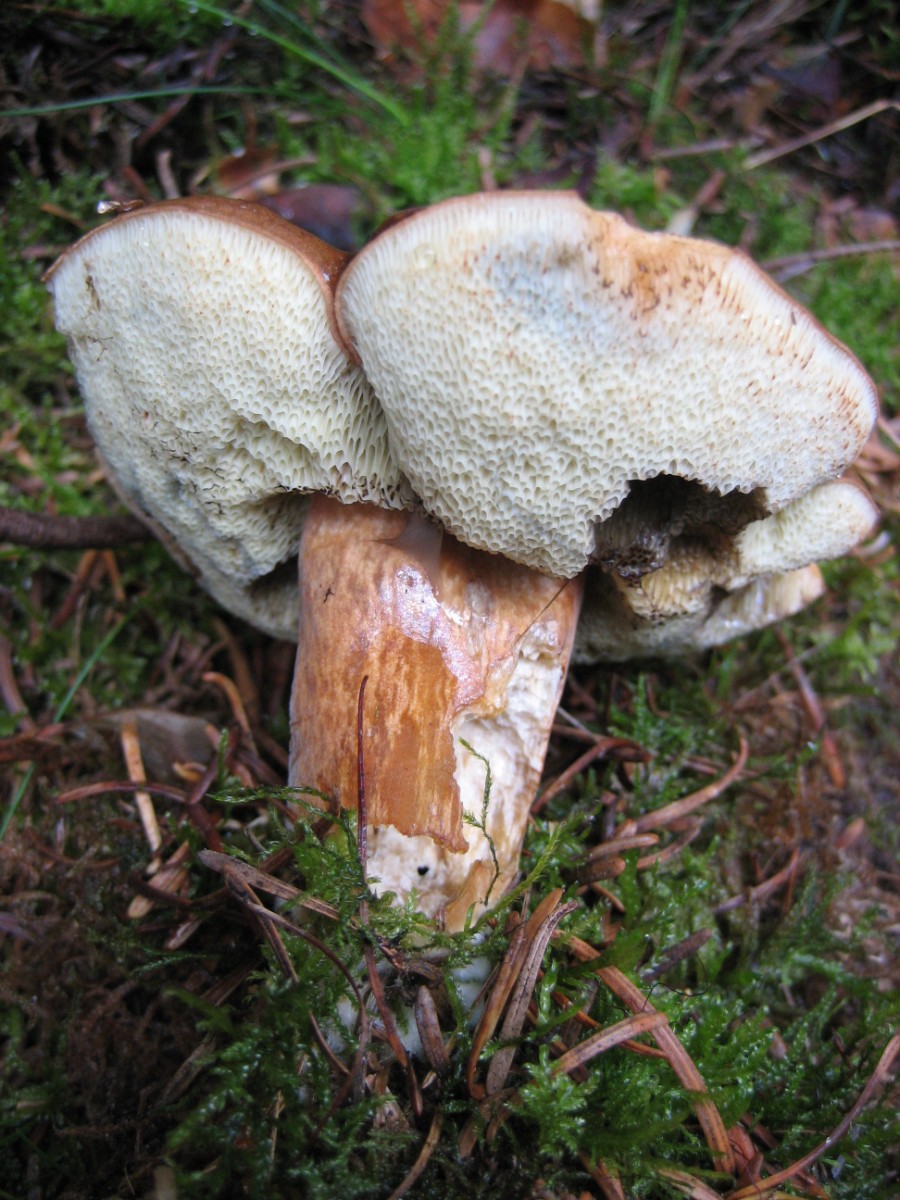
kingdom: Fungi
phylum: Basidiomycota
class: Agaricomycetes
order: Boletales
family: Boletaceae
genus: Imleria
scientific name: Imleria badia
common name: brunstokket rørhat
